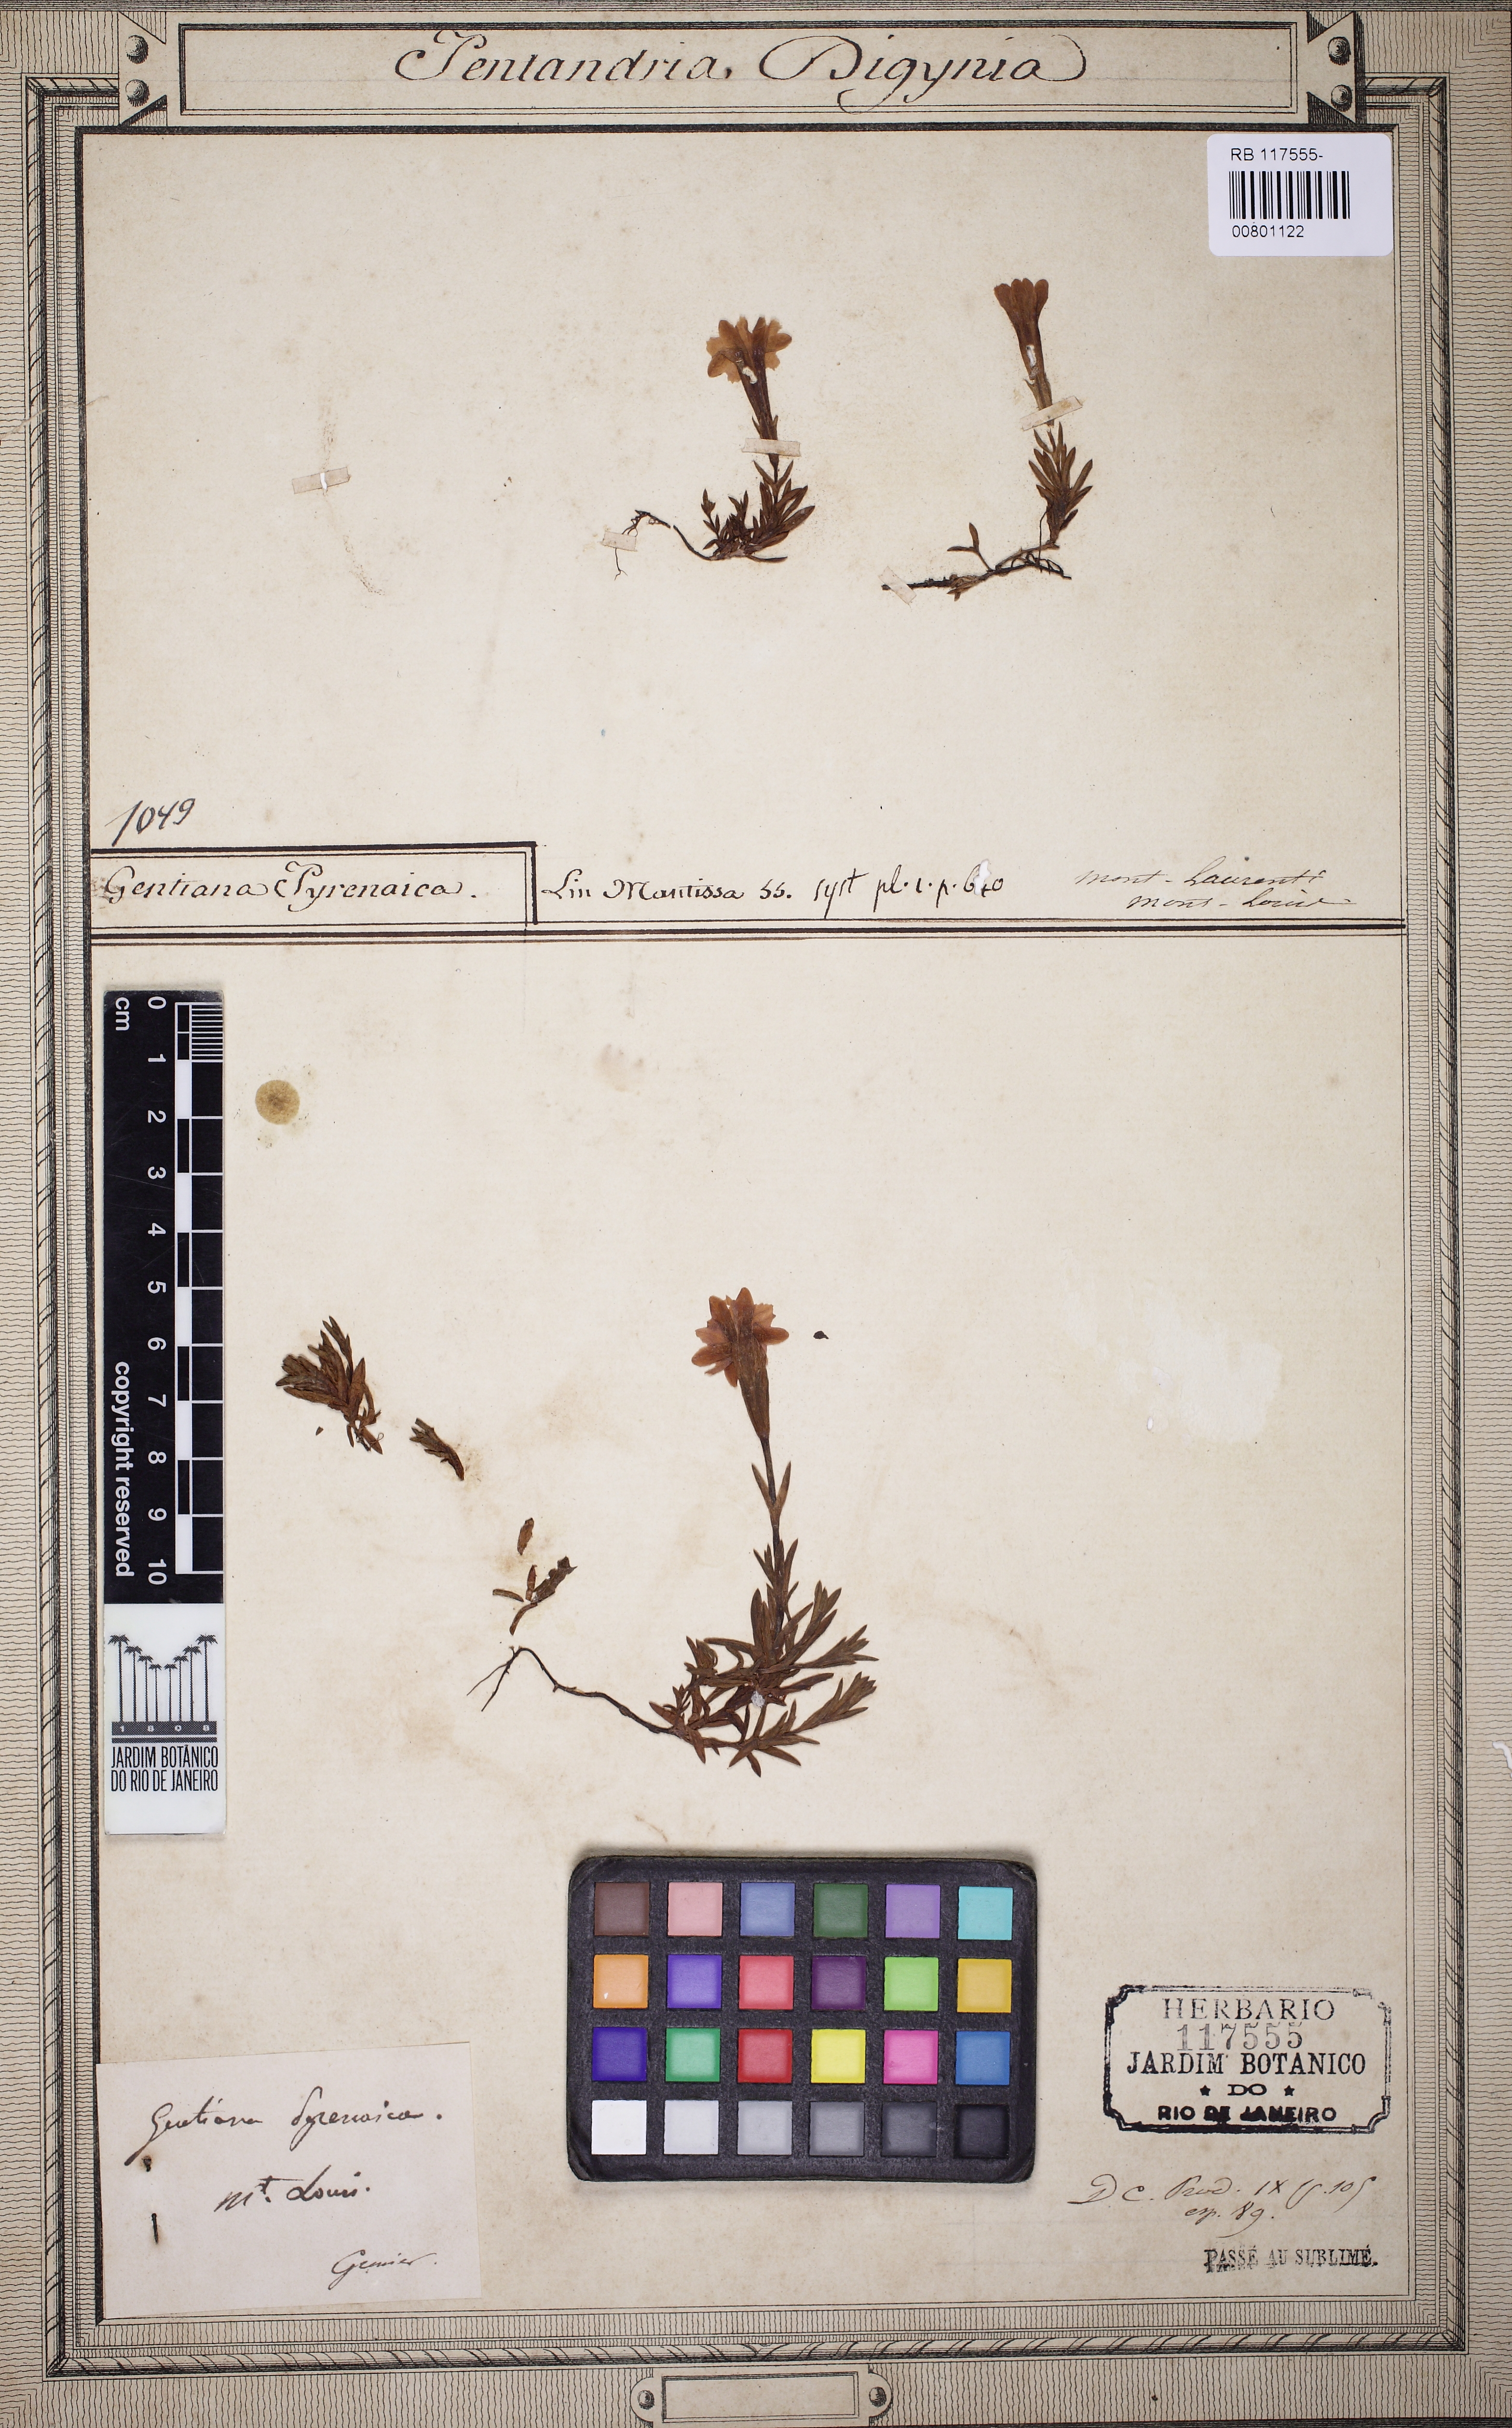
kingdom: Plantae
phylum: Tracheophyta
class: Magnoliopsida
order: Gentianales
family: Gentianaceae
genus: Gentiana
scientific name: Gentiana pyrenaica
